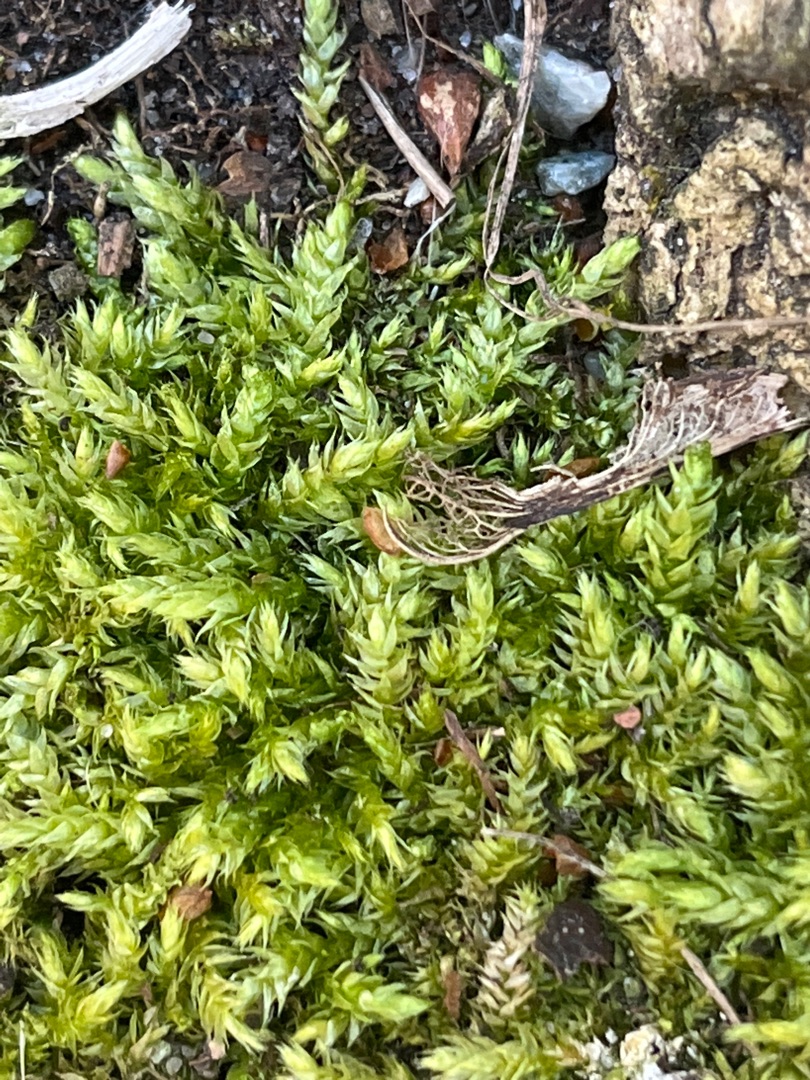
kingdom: Plantae
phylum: Bryophyta
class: Bryopsida
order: Hypnales
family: Brachytheciaceae
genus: Brachythecium
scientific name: Brachythecium rutabulum
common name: Almindelig kortkapsel
